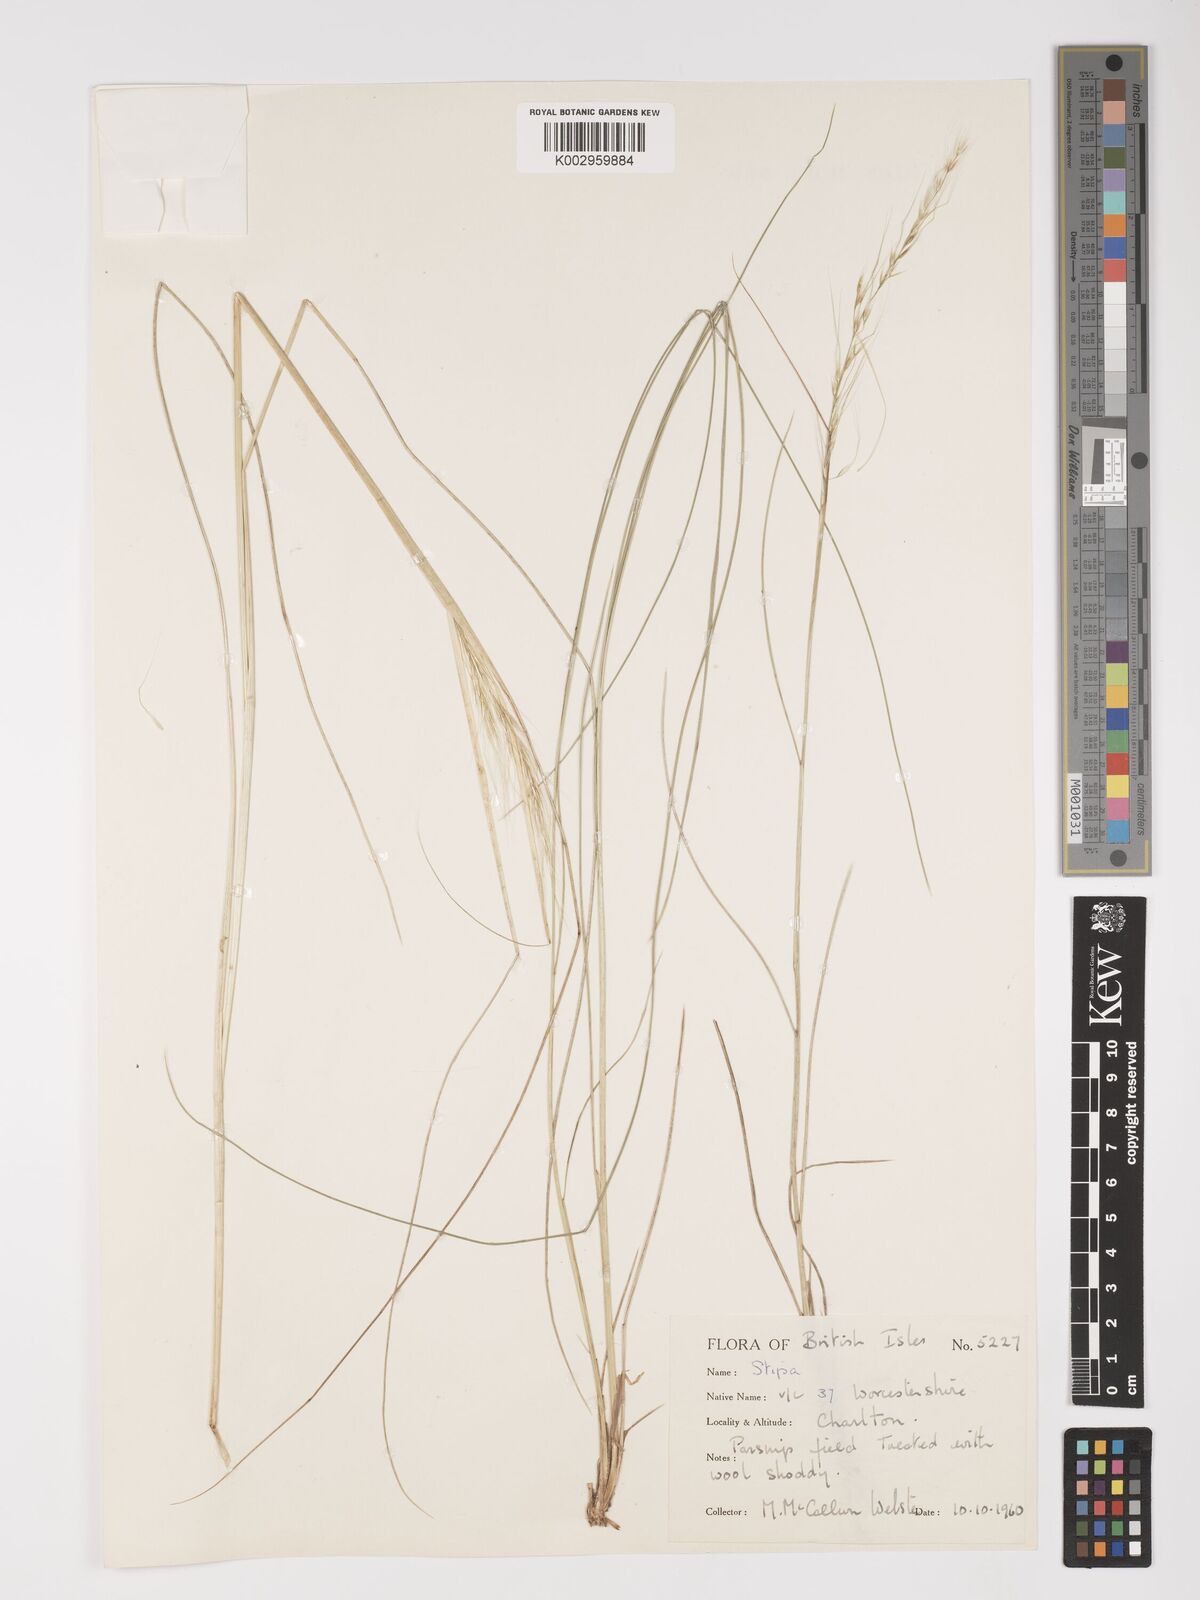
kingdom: Plantae
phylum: Tracheophyta
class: Liliopsida
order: Poales
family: Poaceae
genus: Amelichloa
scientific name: Amelichloa ambigua
